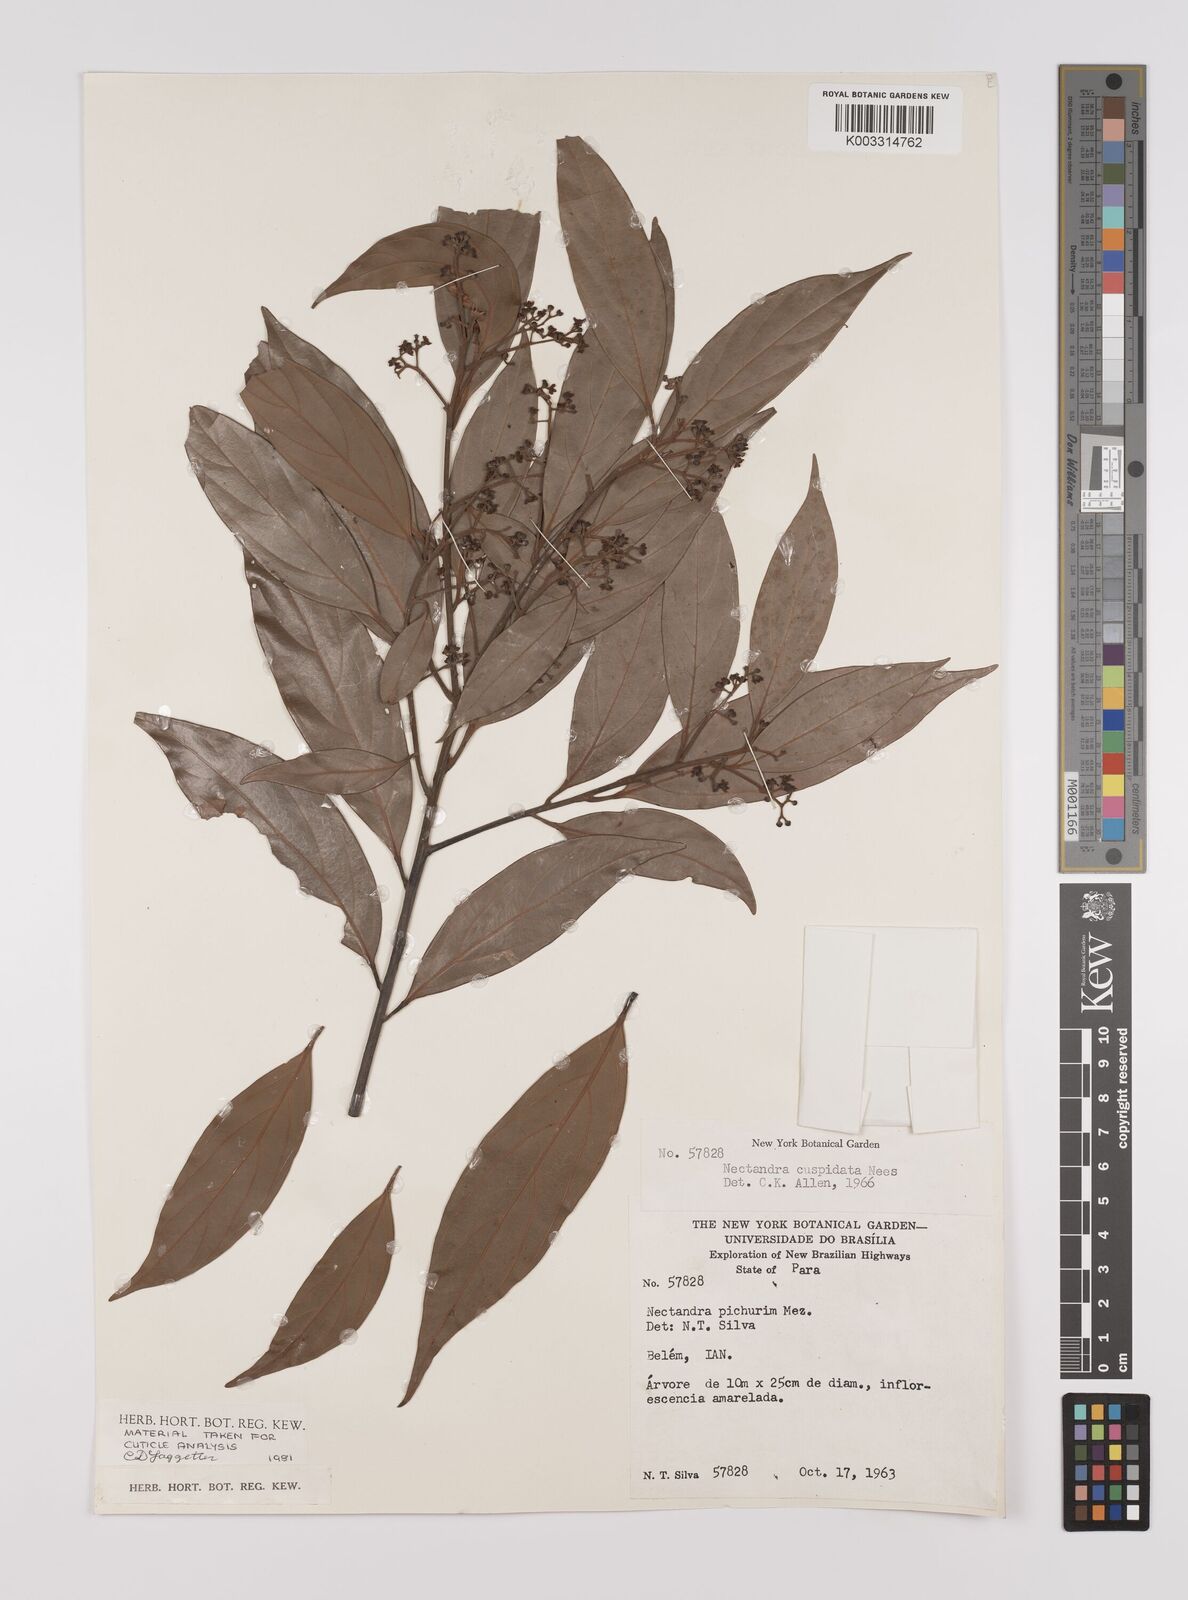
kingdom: Plantae
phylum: Tracheophyta
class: Magnoliopsida
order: Laurales
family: Lauraceae
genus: Nectandra
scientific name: Nectandra cuspidata
